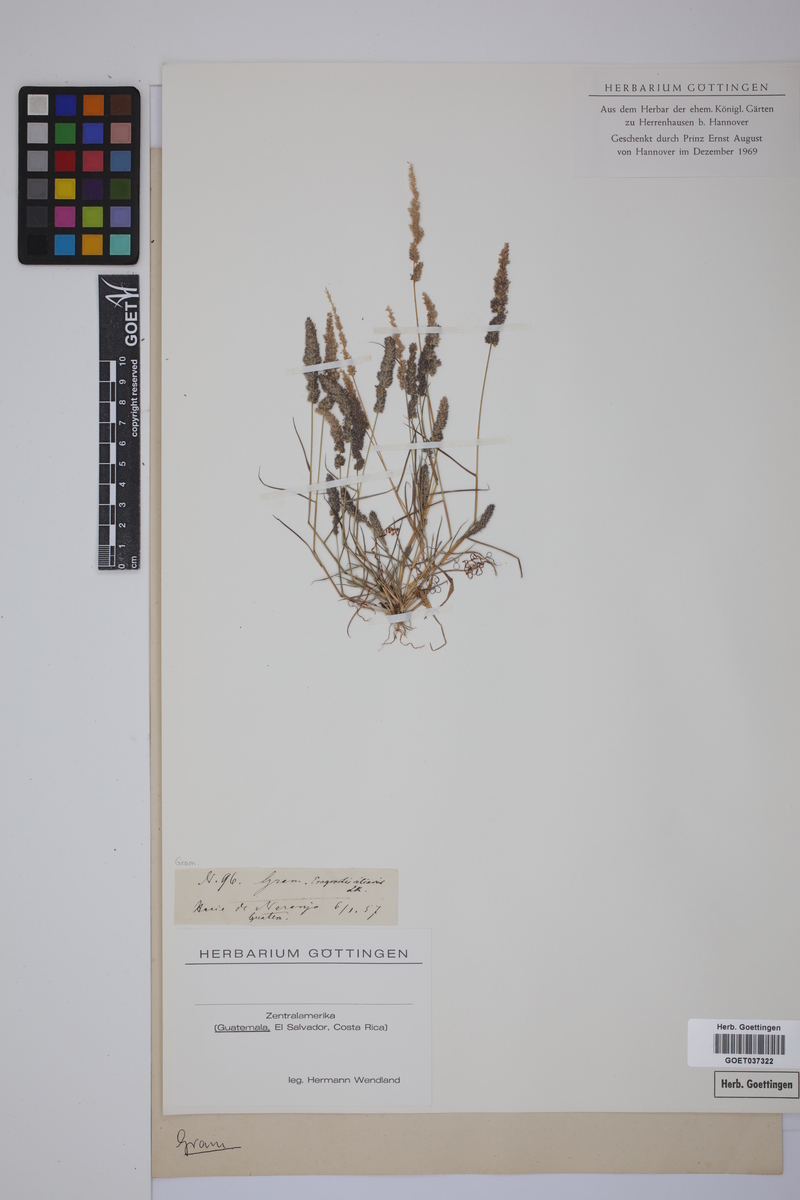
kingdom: Plantae
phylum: Tracheophyta
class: Liliopsida
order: Poales
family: Poaceae
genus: Eragrostis
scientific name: Eragrostis ciliaris
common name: Gophertail lovegrass
